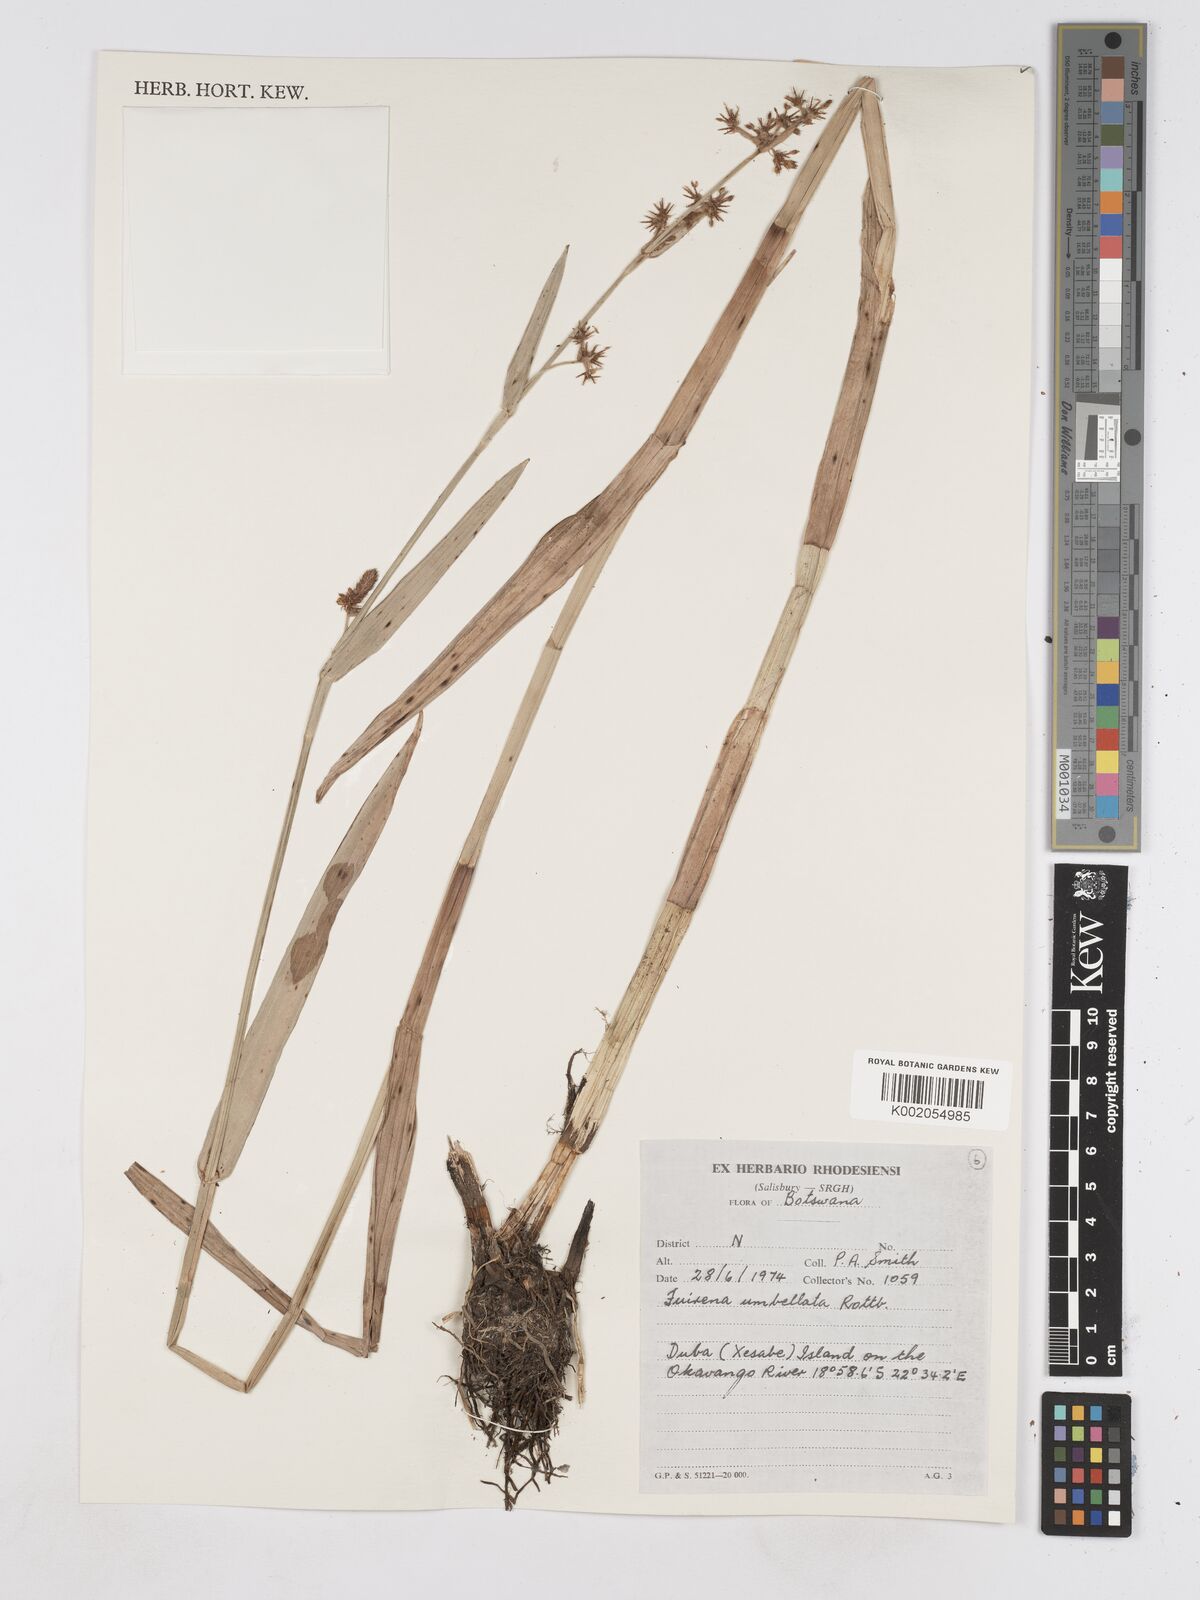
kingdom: Plantae
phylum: Tracheophyta
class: Liliopsida
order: Poales
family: Cyperaceae
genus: Fuirena
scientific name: Fuirena umbellata
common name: Yefen
